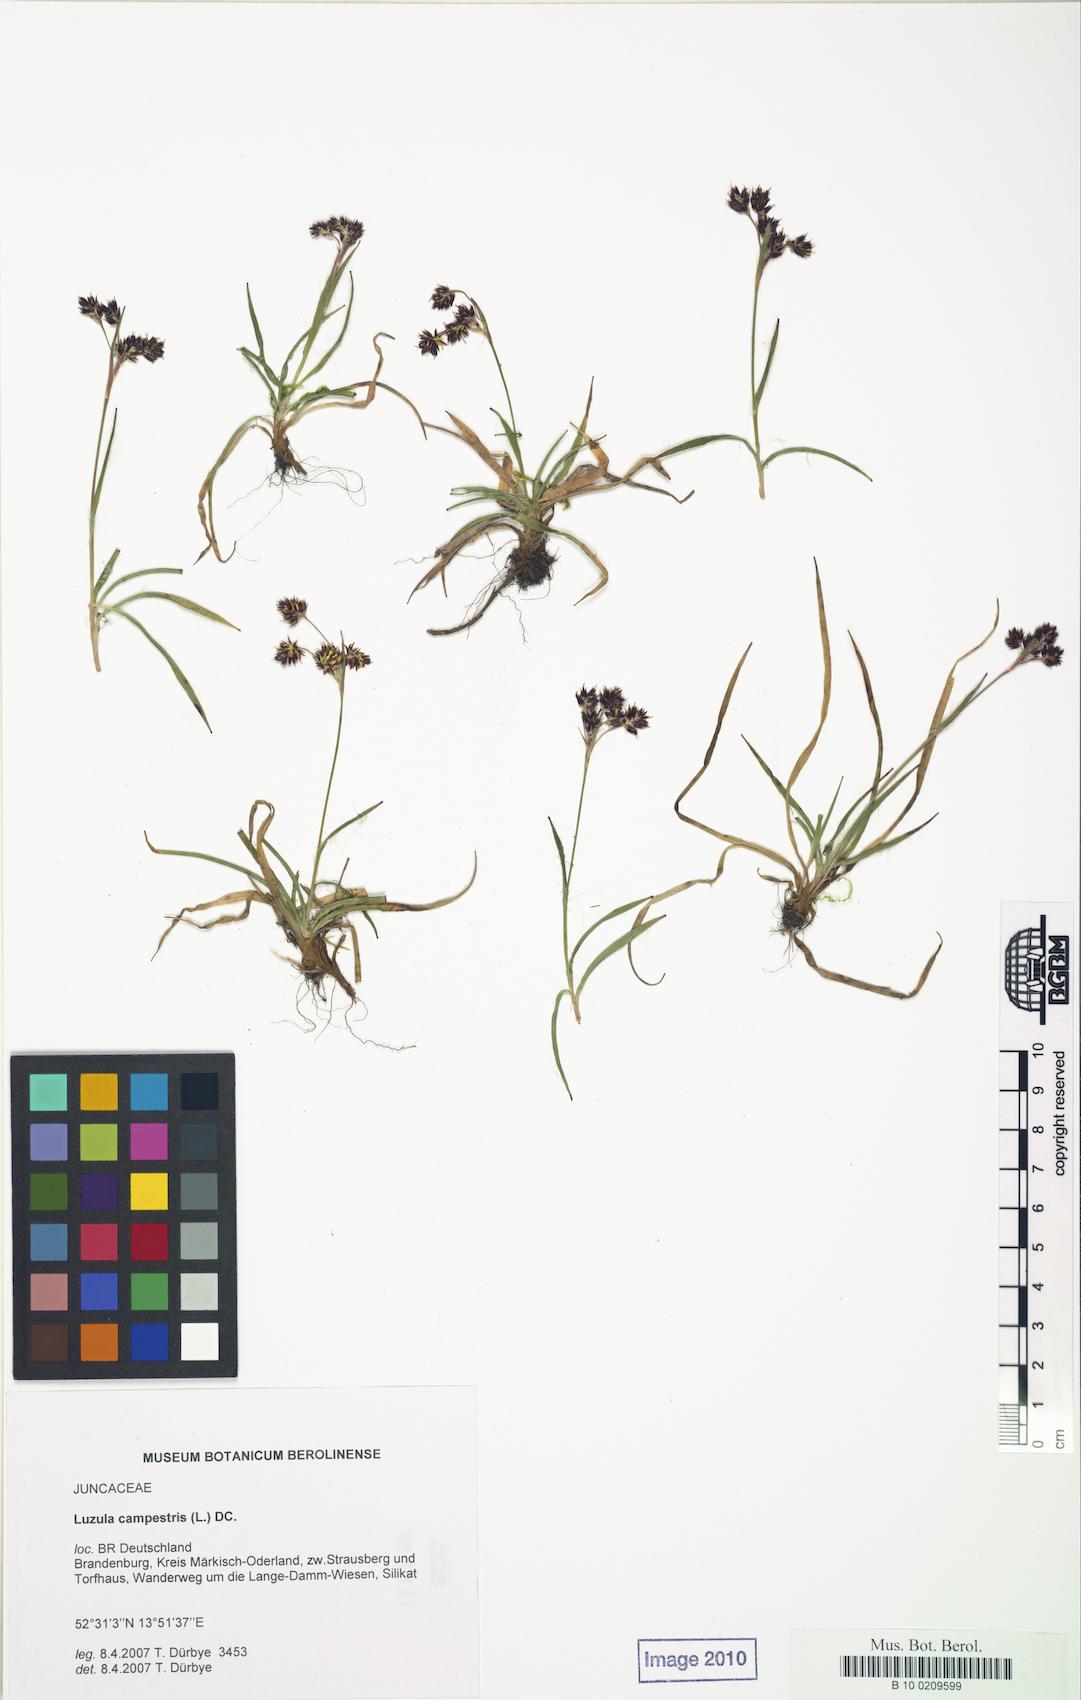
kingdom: Plantae
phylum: Tracheophyta
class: Liliopsida
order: Poales
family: Juncaceae
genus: Luzula
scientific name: Luzula campestris
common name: Field wood-rush
